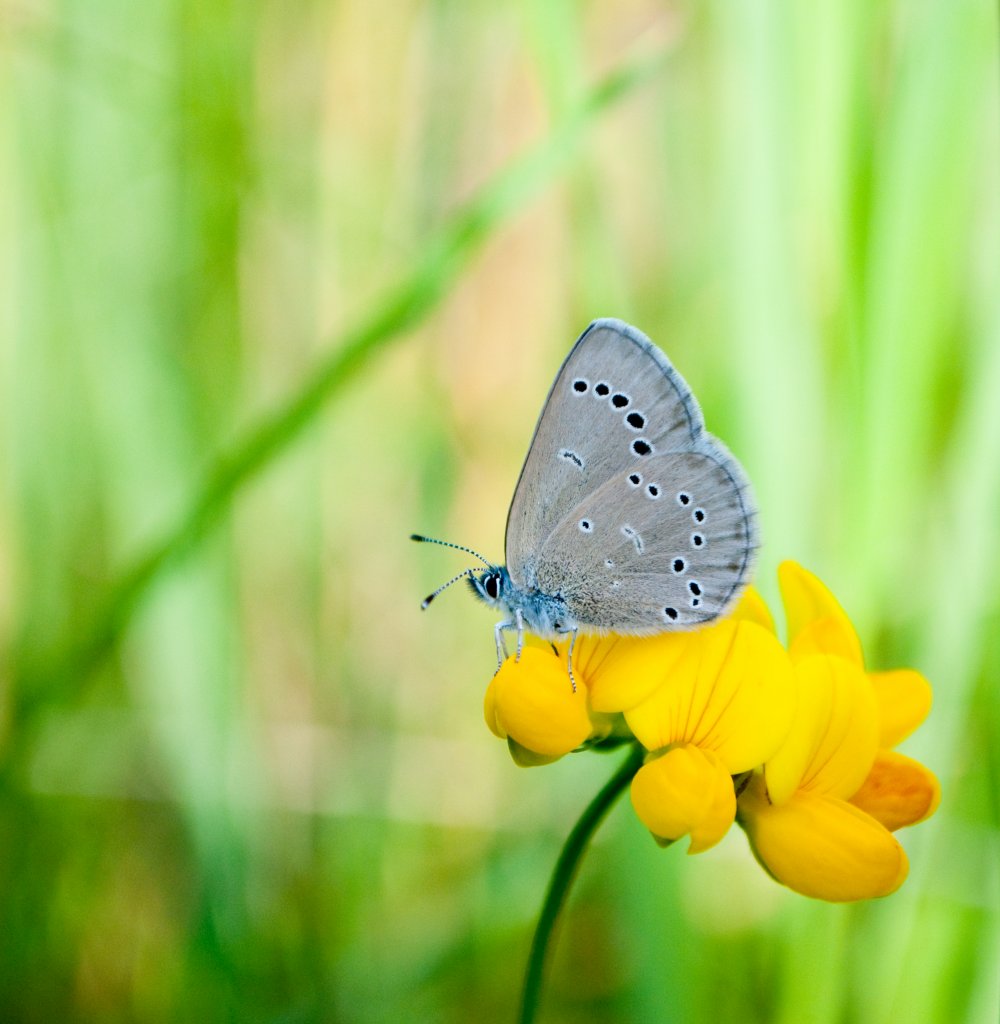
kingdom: Animalia
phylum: Arthropoda
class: Insecta
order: Lepidoptera
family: Lycaenidae
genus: Glaucopsyche
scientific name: Glaucopsyche lygdamus
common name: Silvery Blue
